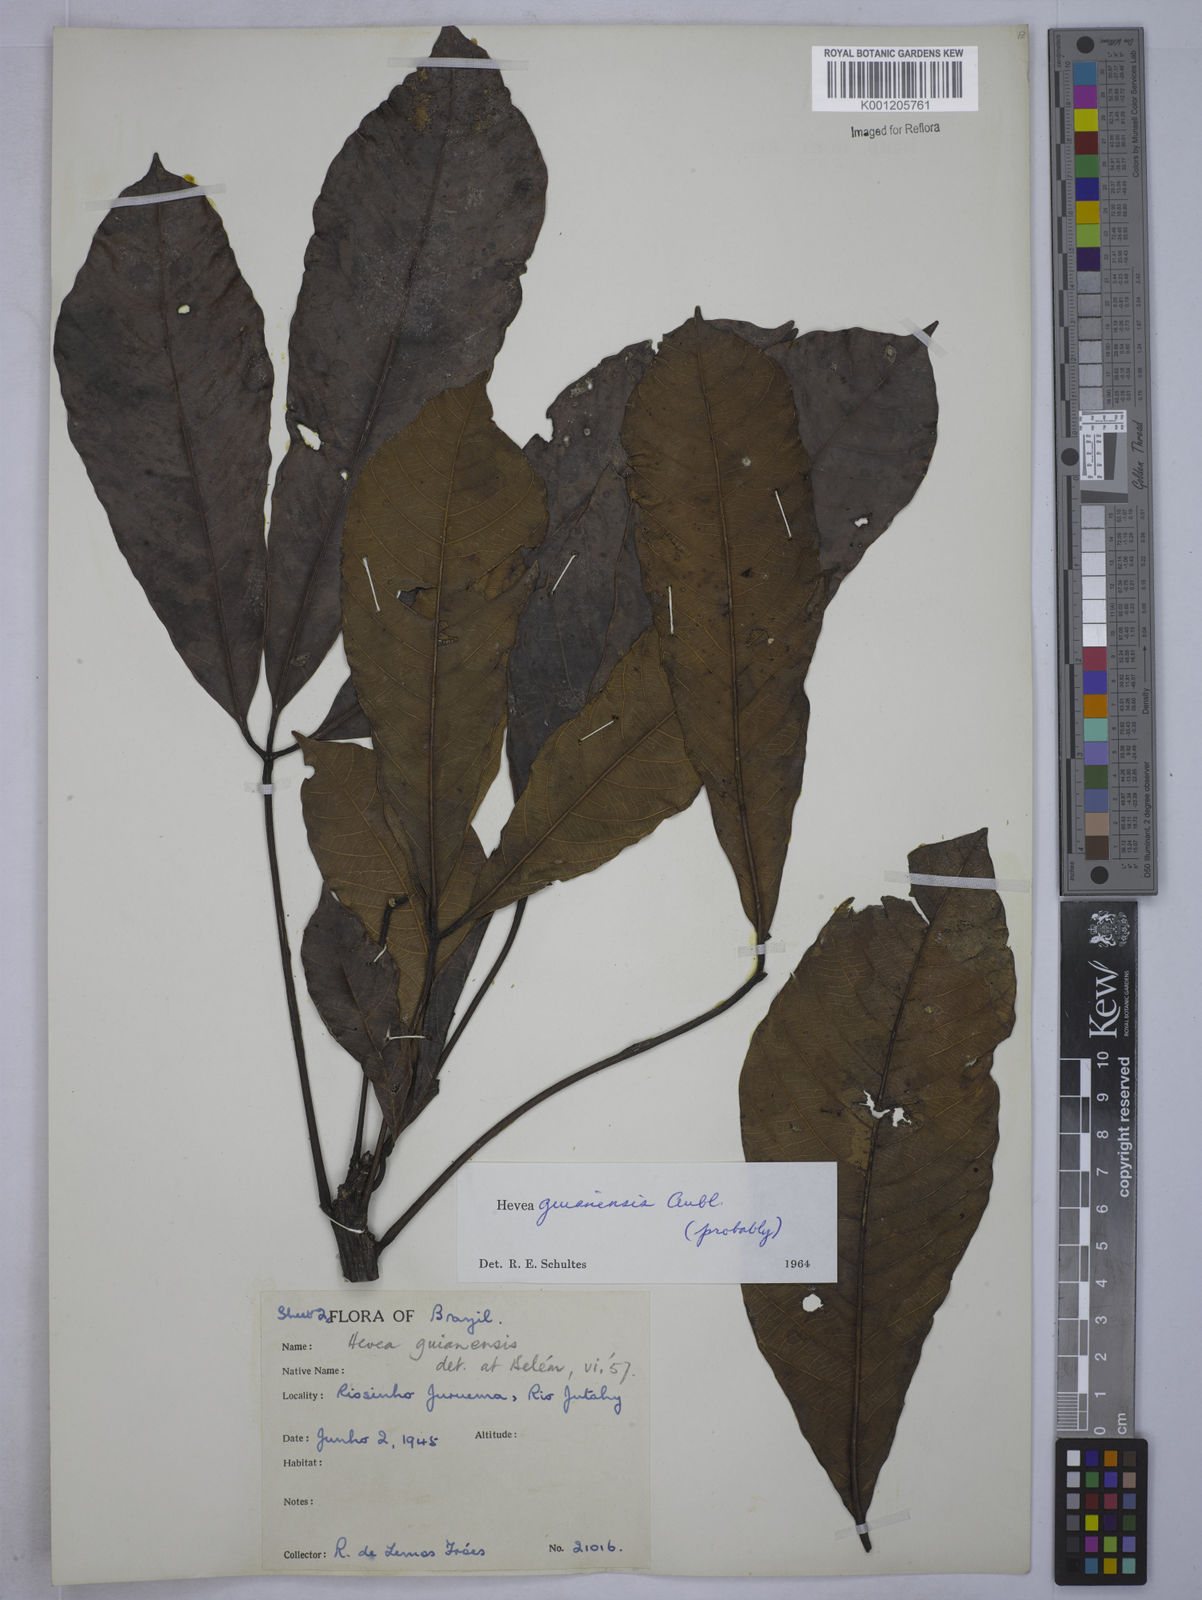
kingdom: Plantae
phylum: Tracheophyta
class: Magnoliopsida
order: Malpighiales
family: Euphorbiaceae
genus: Hevea
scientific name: Hevea guianensis
